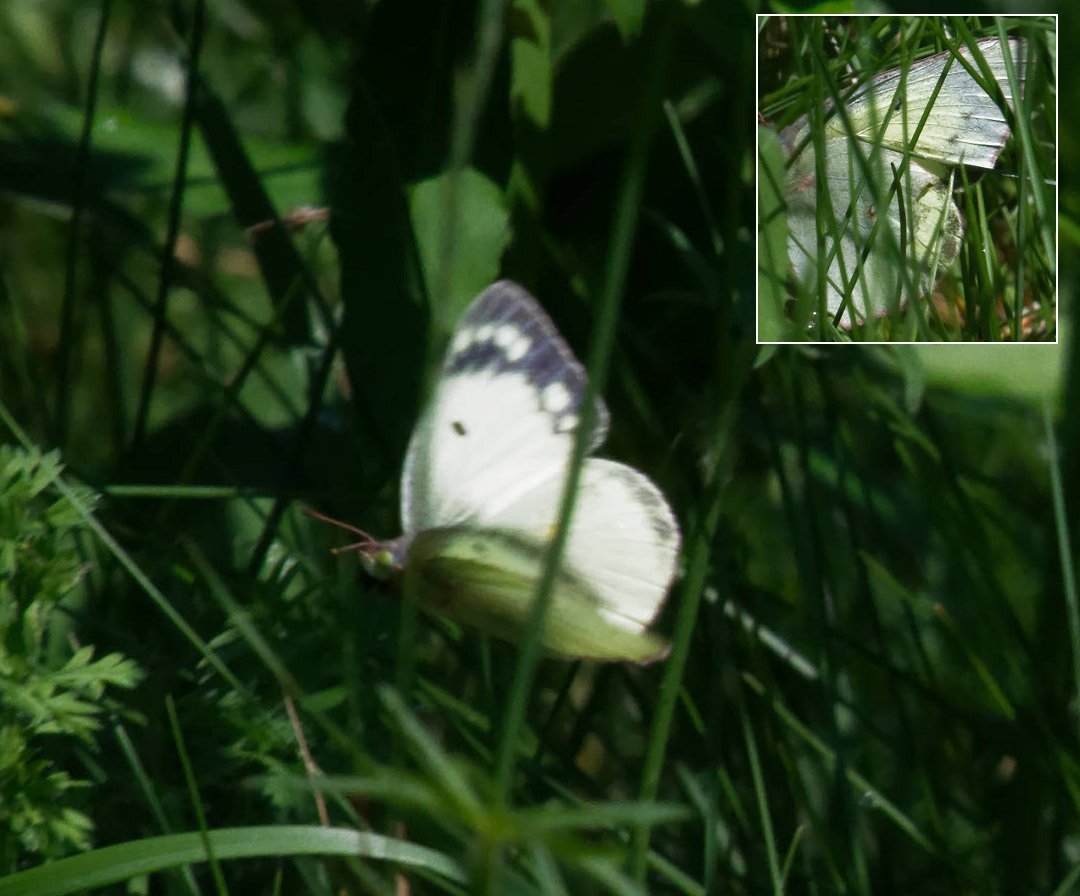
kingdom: Animalia
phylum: Arthropoda
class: Insecta
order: Lepidoptera
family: Pieridae
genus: Colias
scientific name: Colias philodice
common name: Clouded Sulphur
